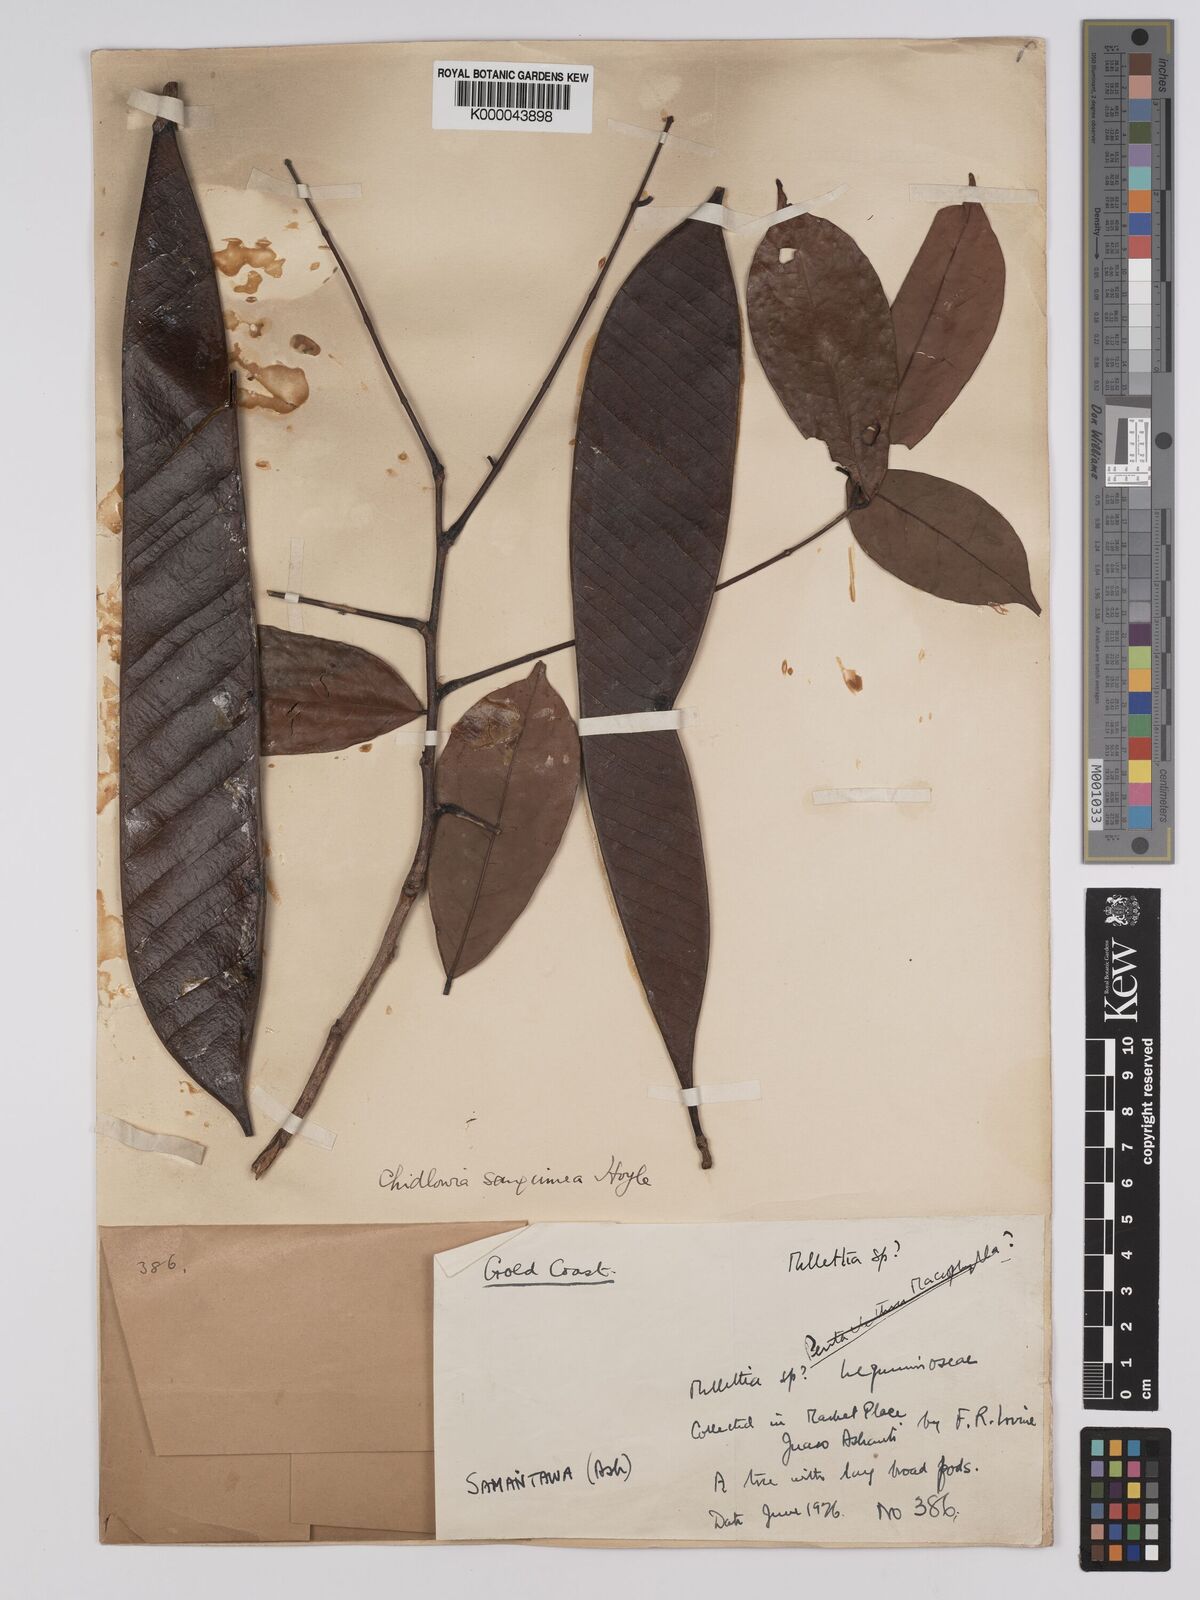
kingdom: Plantae
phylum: Tracheophyta
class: Magnoliopsida
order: Fabales
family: Fabaceae
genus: Chidlowia
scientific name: Chidlowia sanguinea
